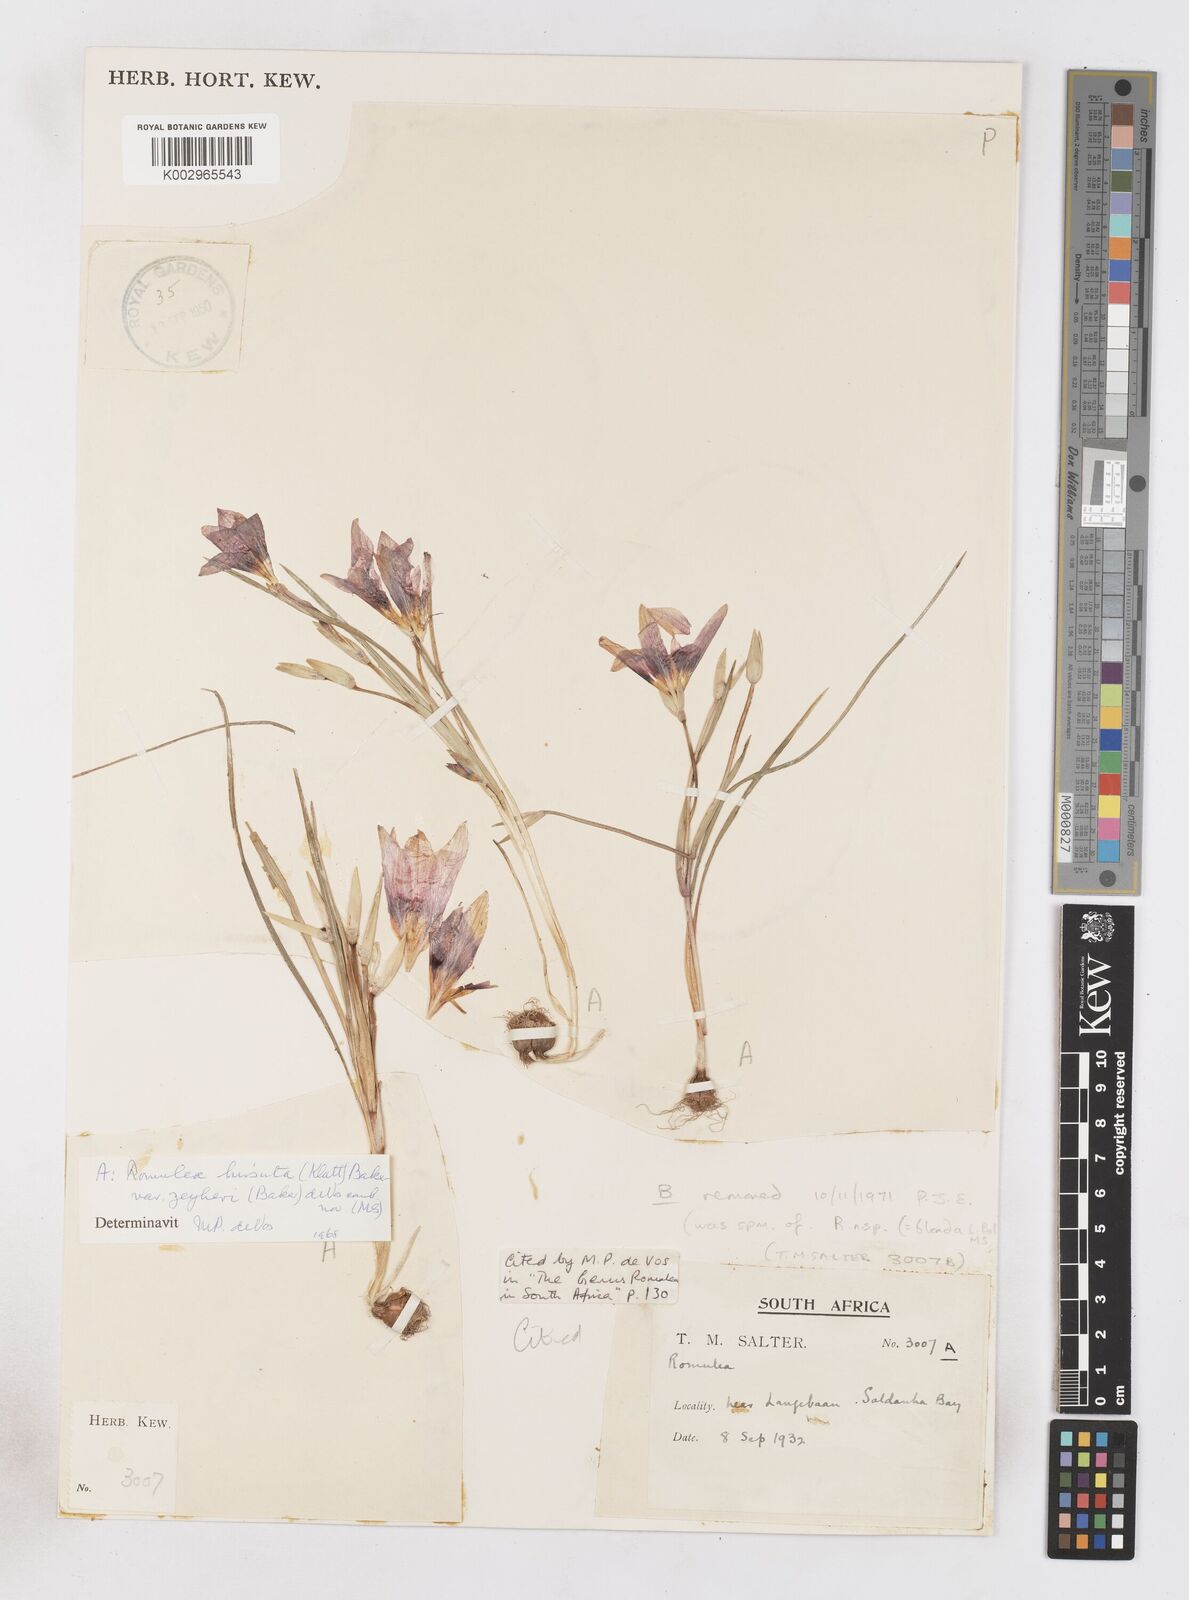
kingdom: Plantae
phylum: Tracheophyta
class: Liliopsida
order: Asparagales
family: Iridaceae
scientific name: Iridaceae
